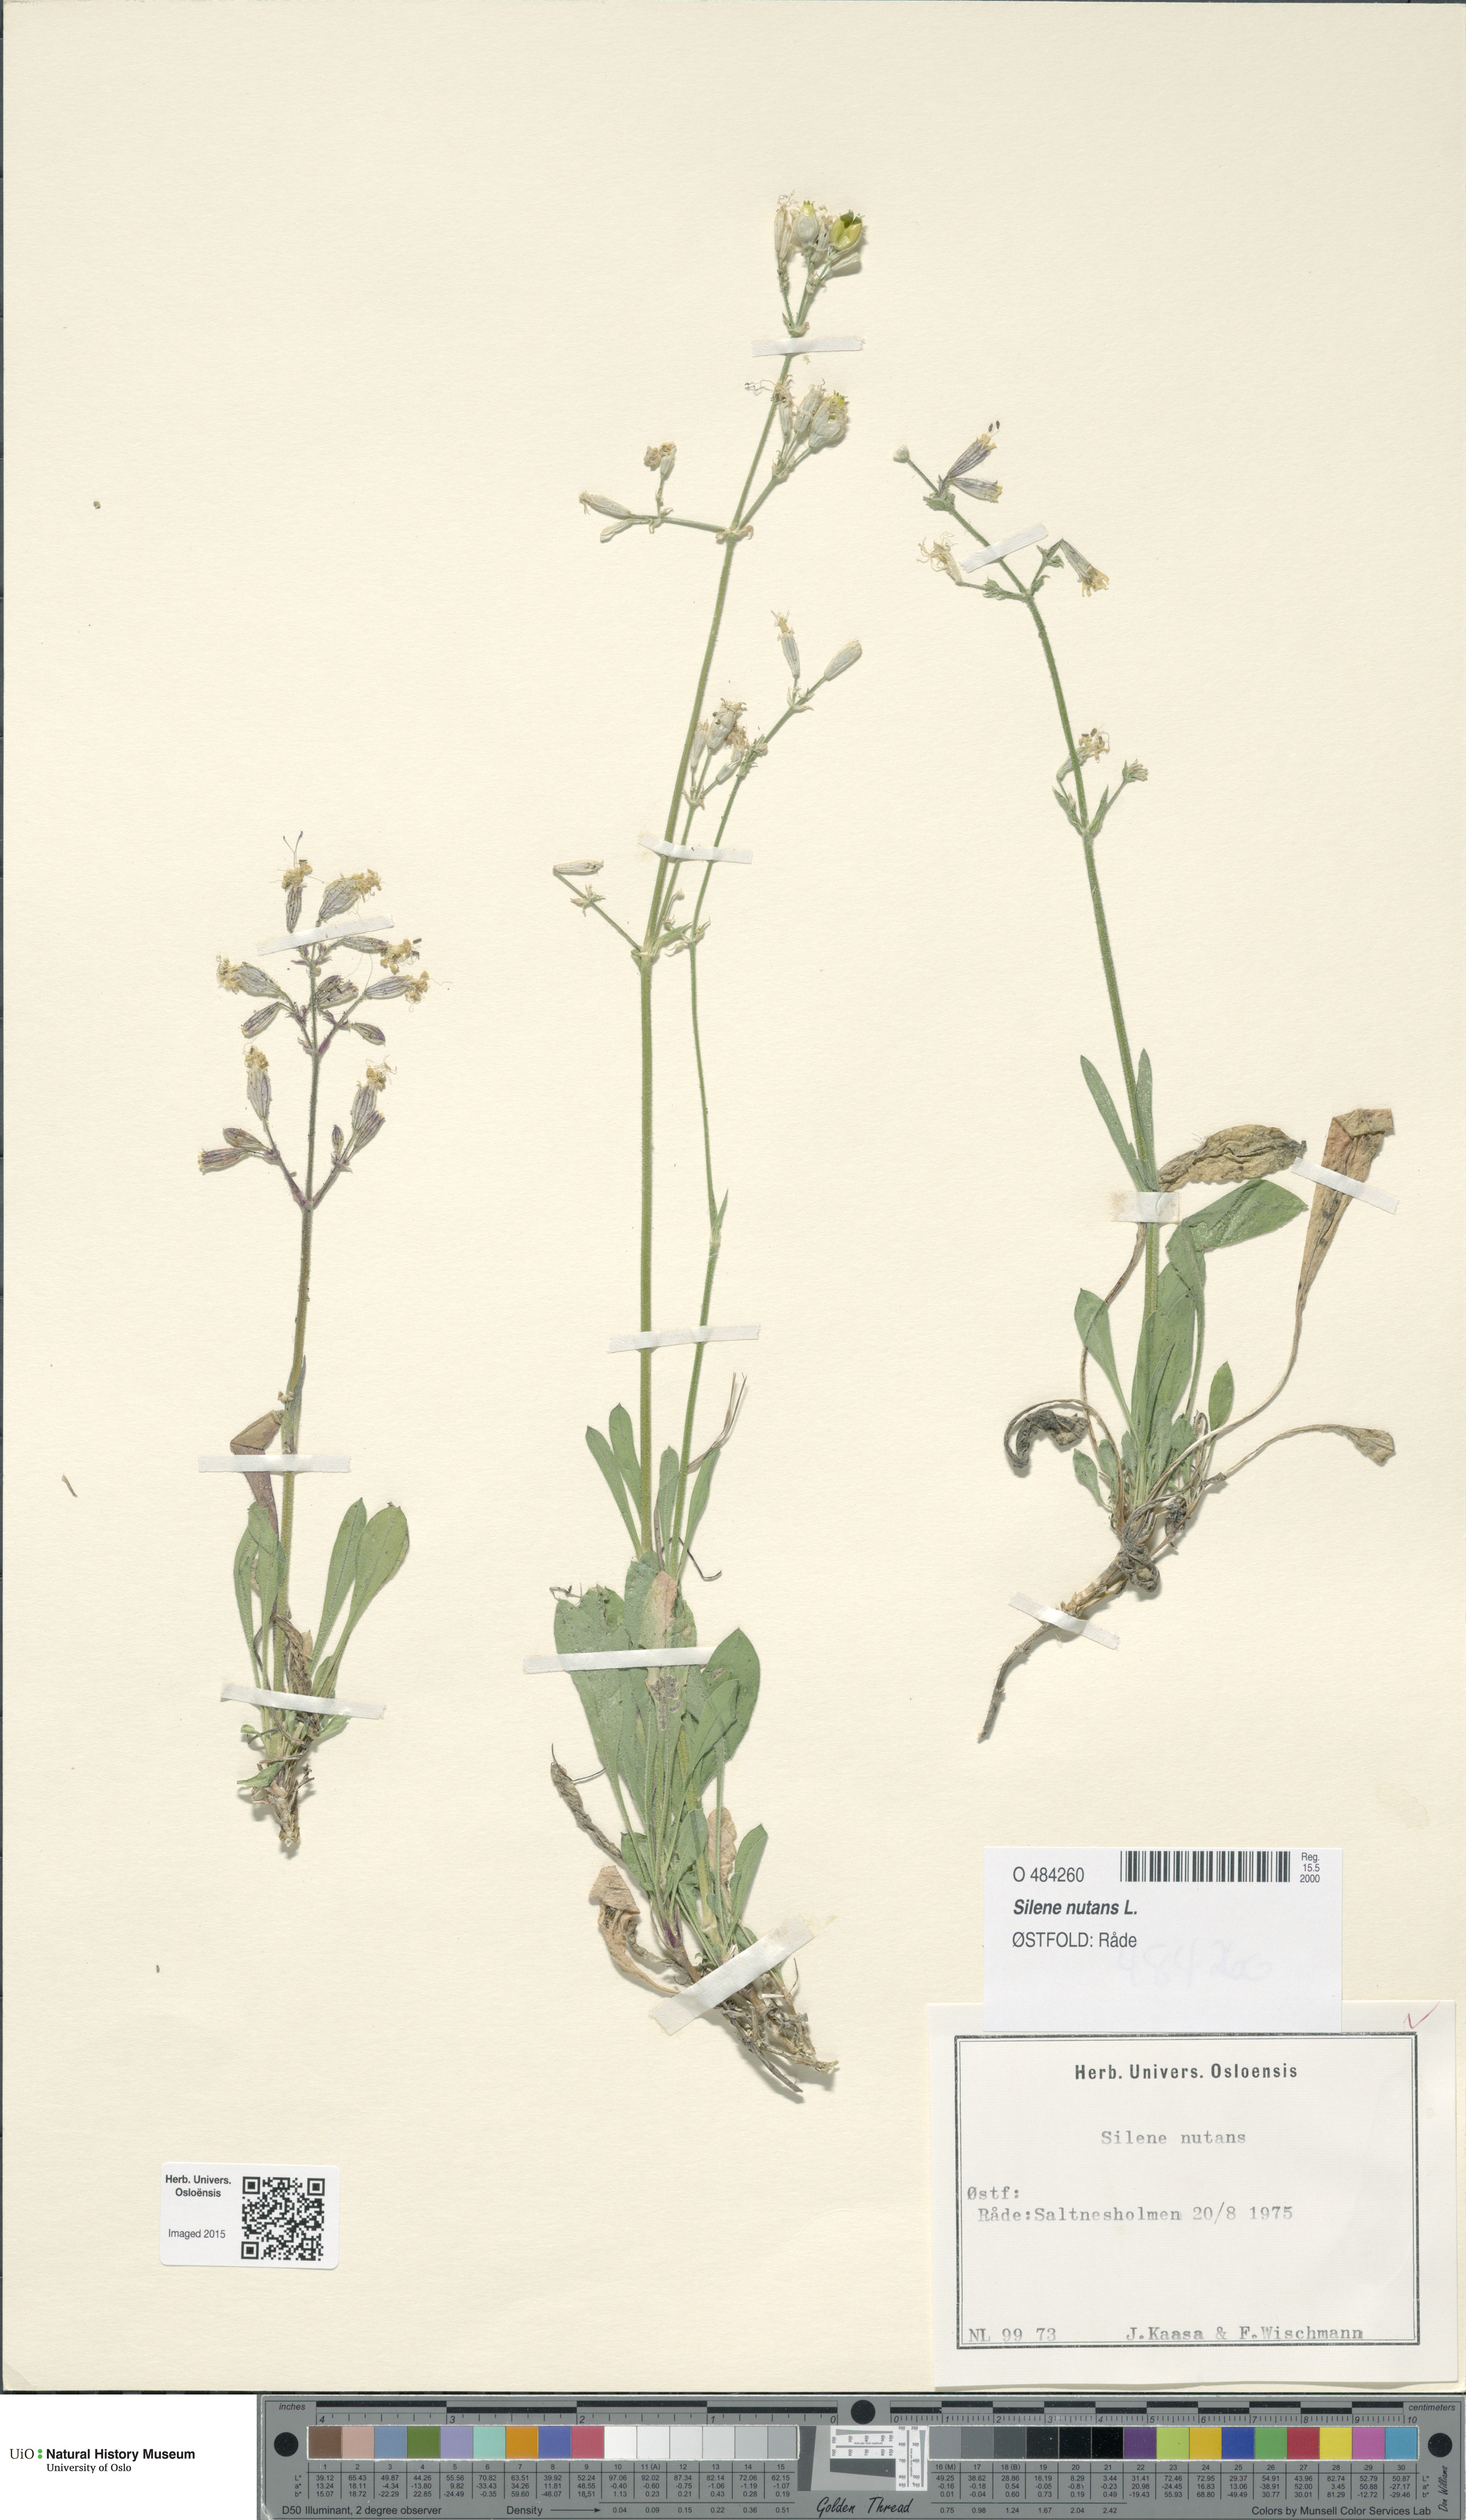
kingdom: Plantae
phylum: Tracheophyta
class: Magnoliopsida
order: Caryophyllales
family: Caryophyllaceae
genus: Silene
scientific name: Silene nutans
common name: Nottingham catchfly
